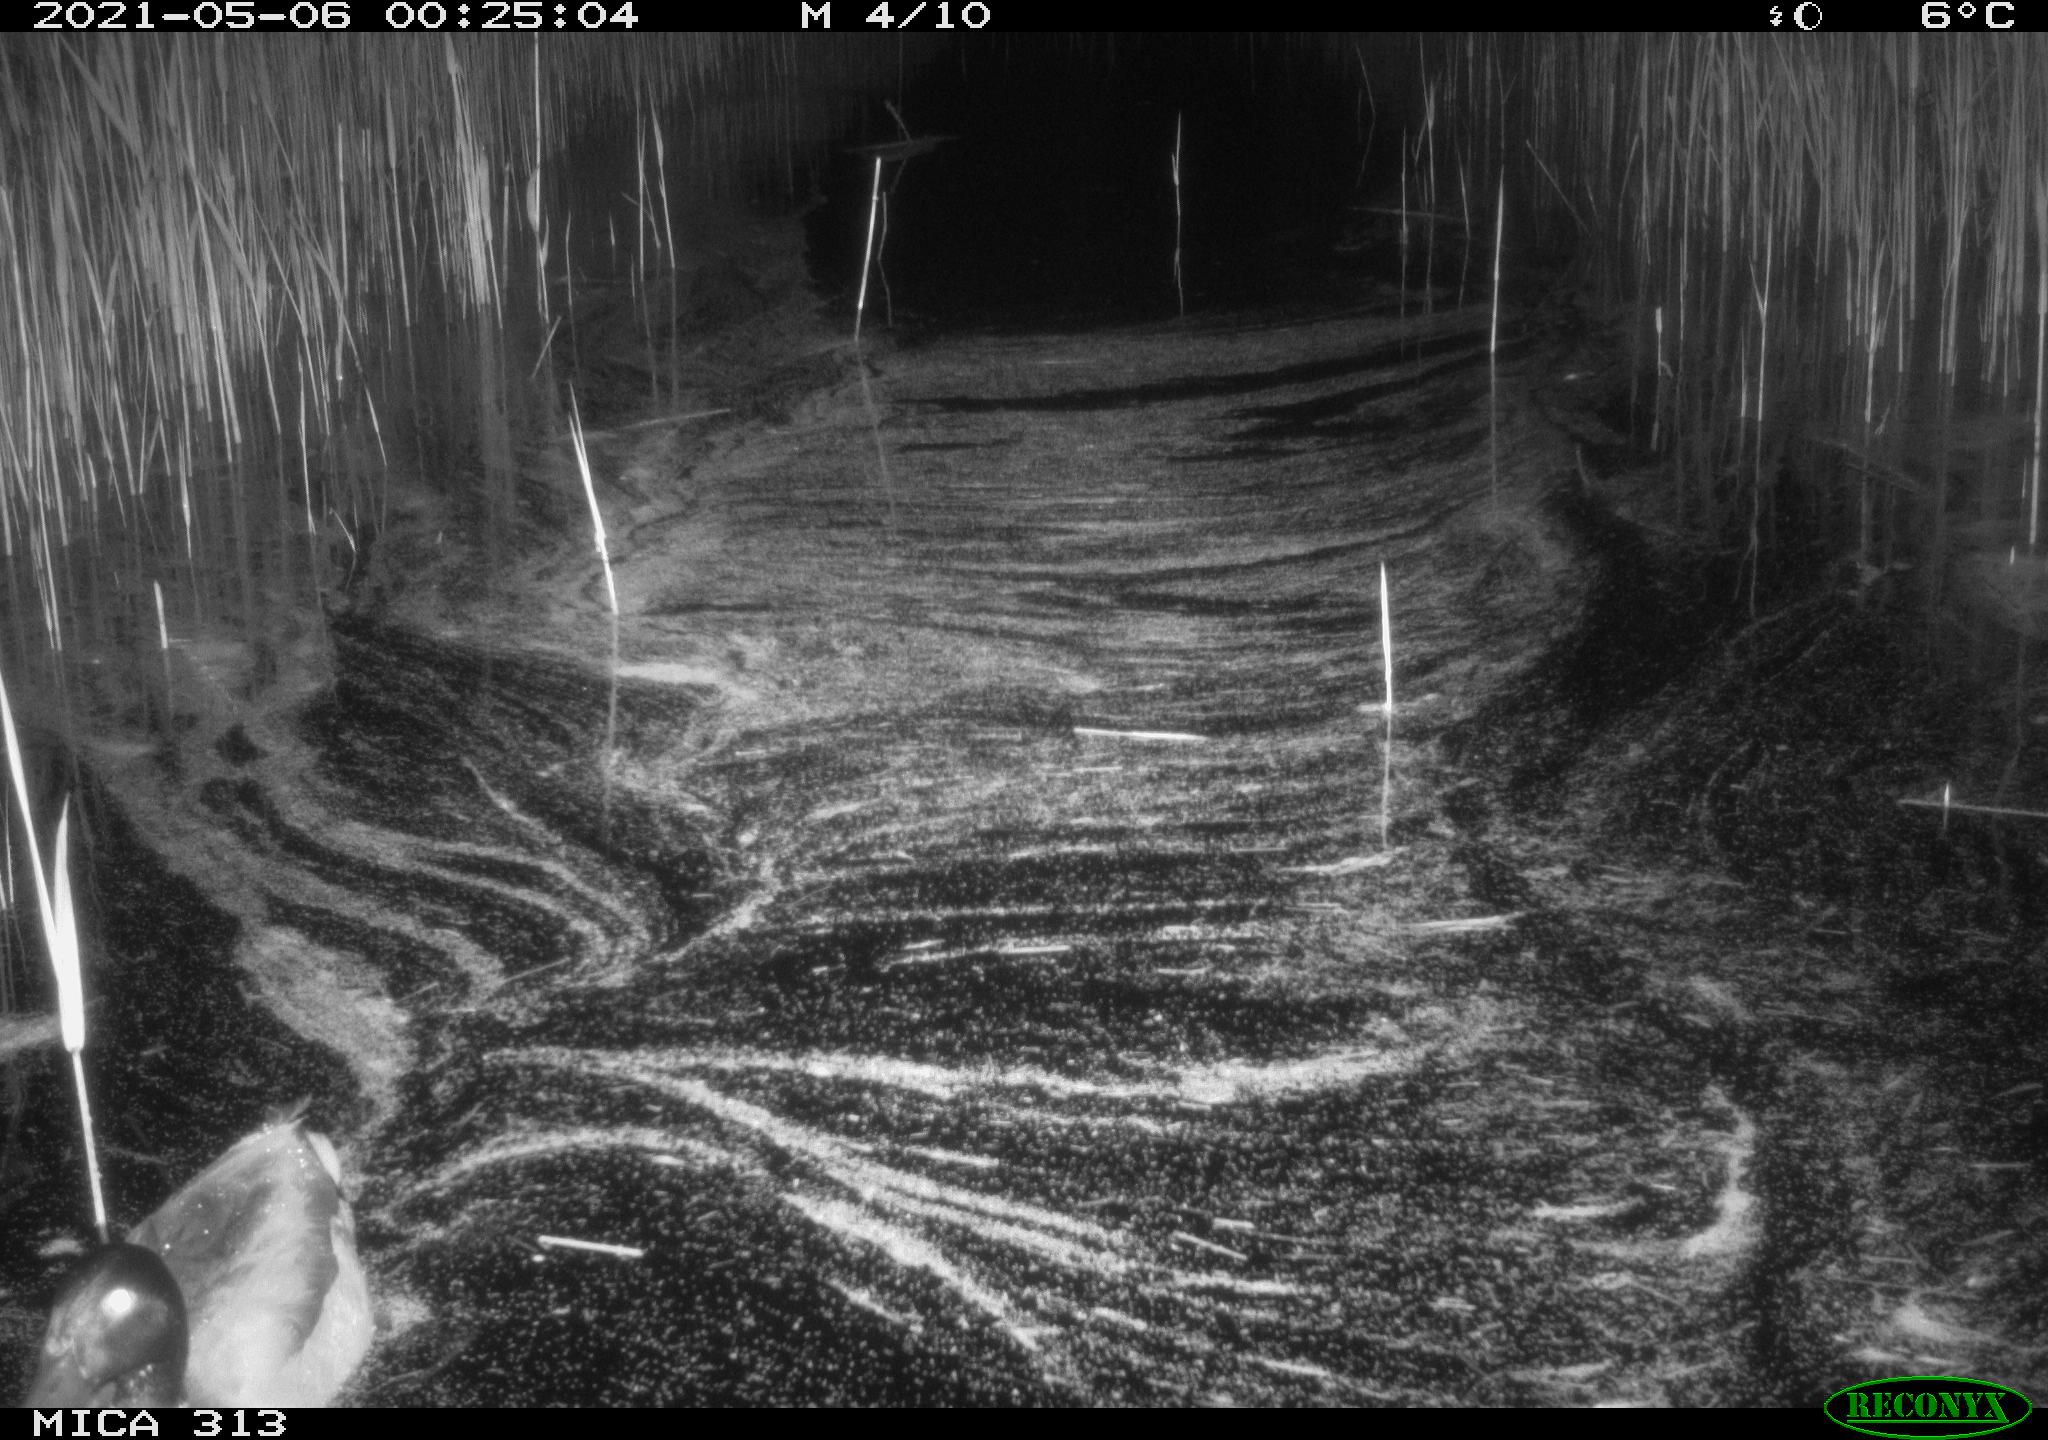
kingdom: Animalia
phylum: Chordata
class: Aves
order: Anseriformes
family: Anatidae
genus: Anas
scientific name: Anas platyrhynchos
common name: Mallard
